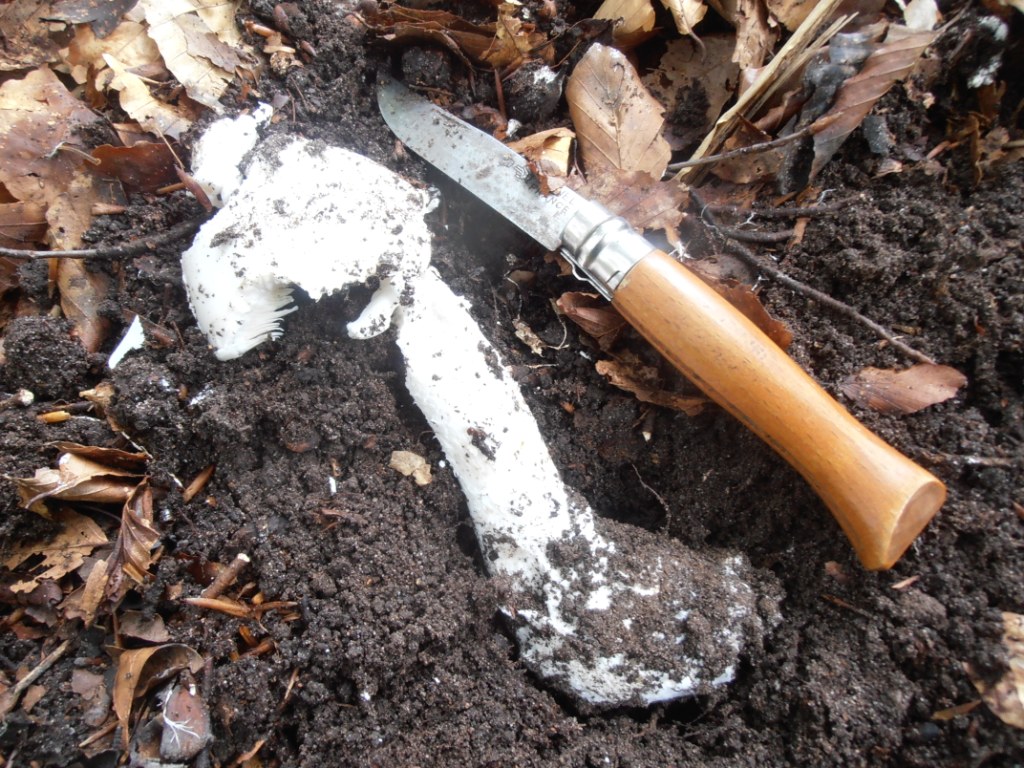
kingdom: Fungi
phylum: Basidiomycota
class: Agaricomycetes
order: Agaricales
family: Amanitaceae
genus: Amanita
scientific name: Amanita
